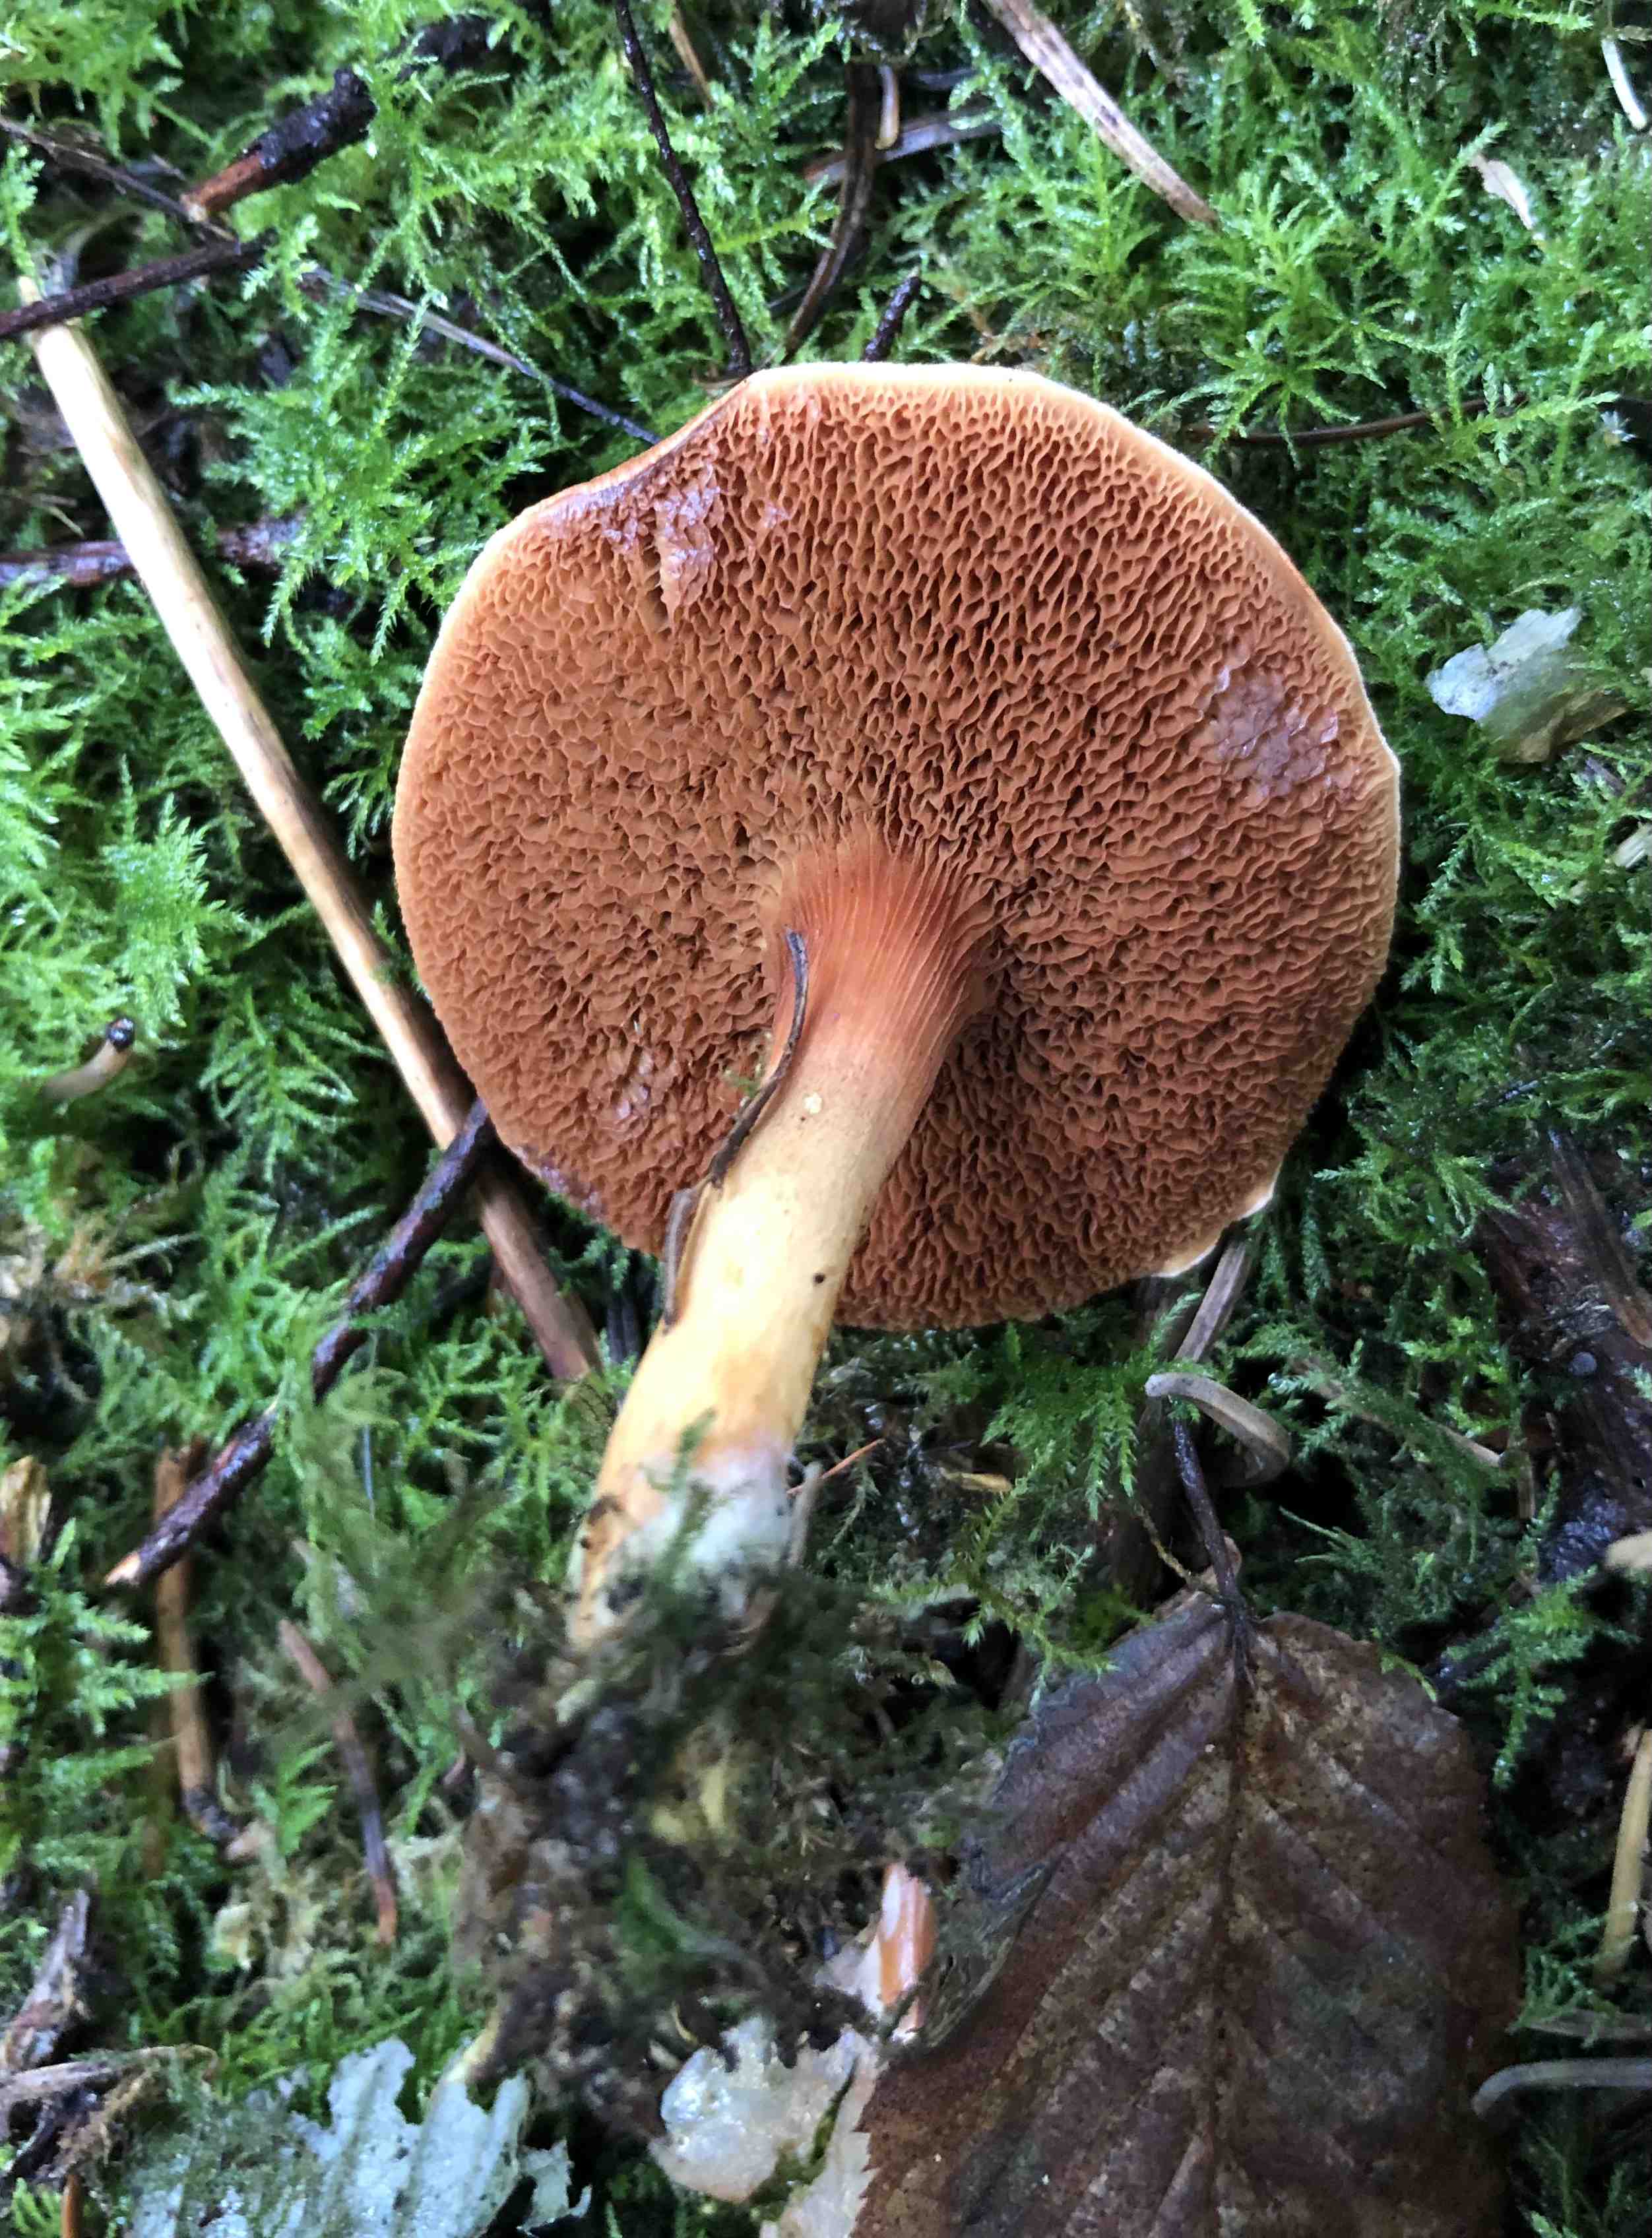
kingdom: Fungi
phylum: Basidiomycota
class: Agaricomycetes
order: Boletales
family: Boletaceae
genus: Chalciporus
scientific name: Chalciporus piperatus
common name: peberrørhat
